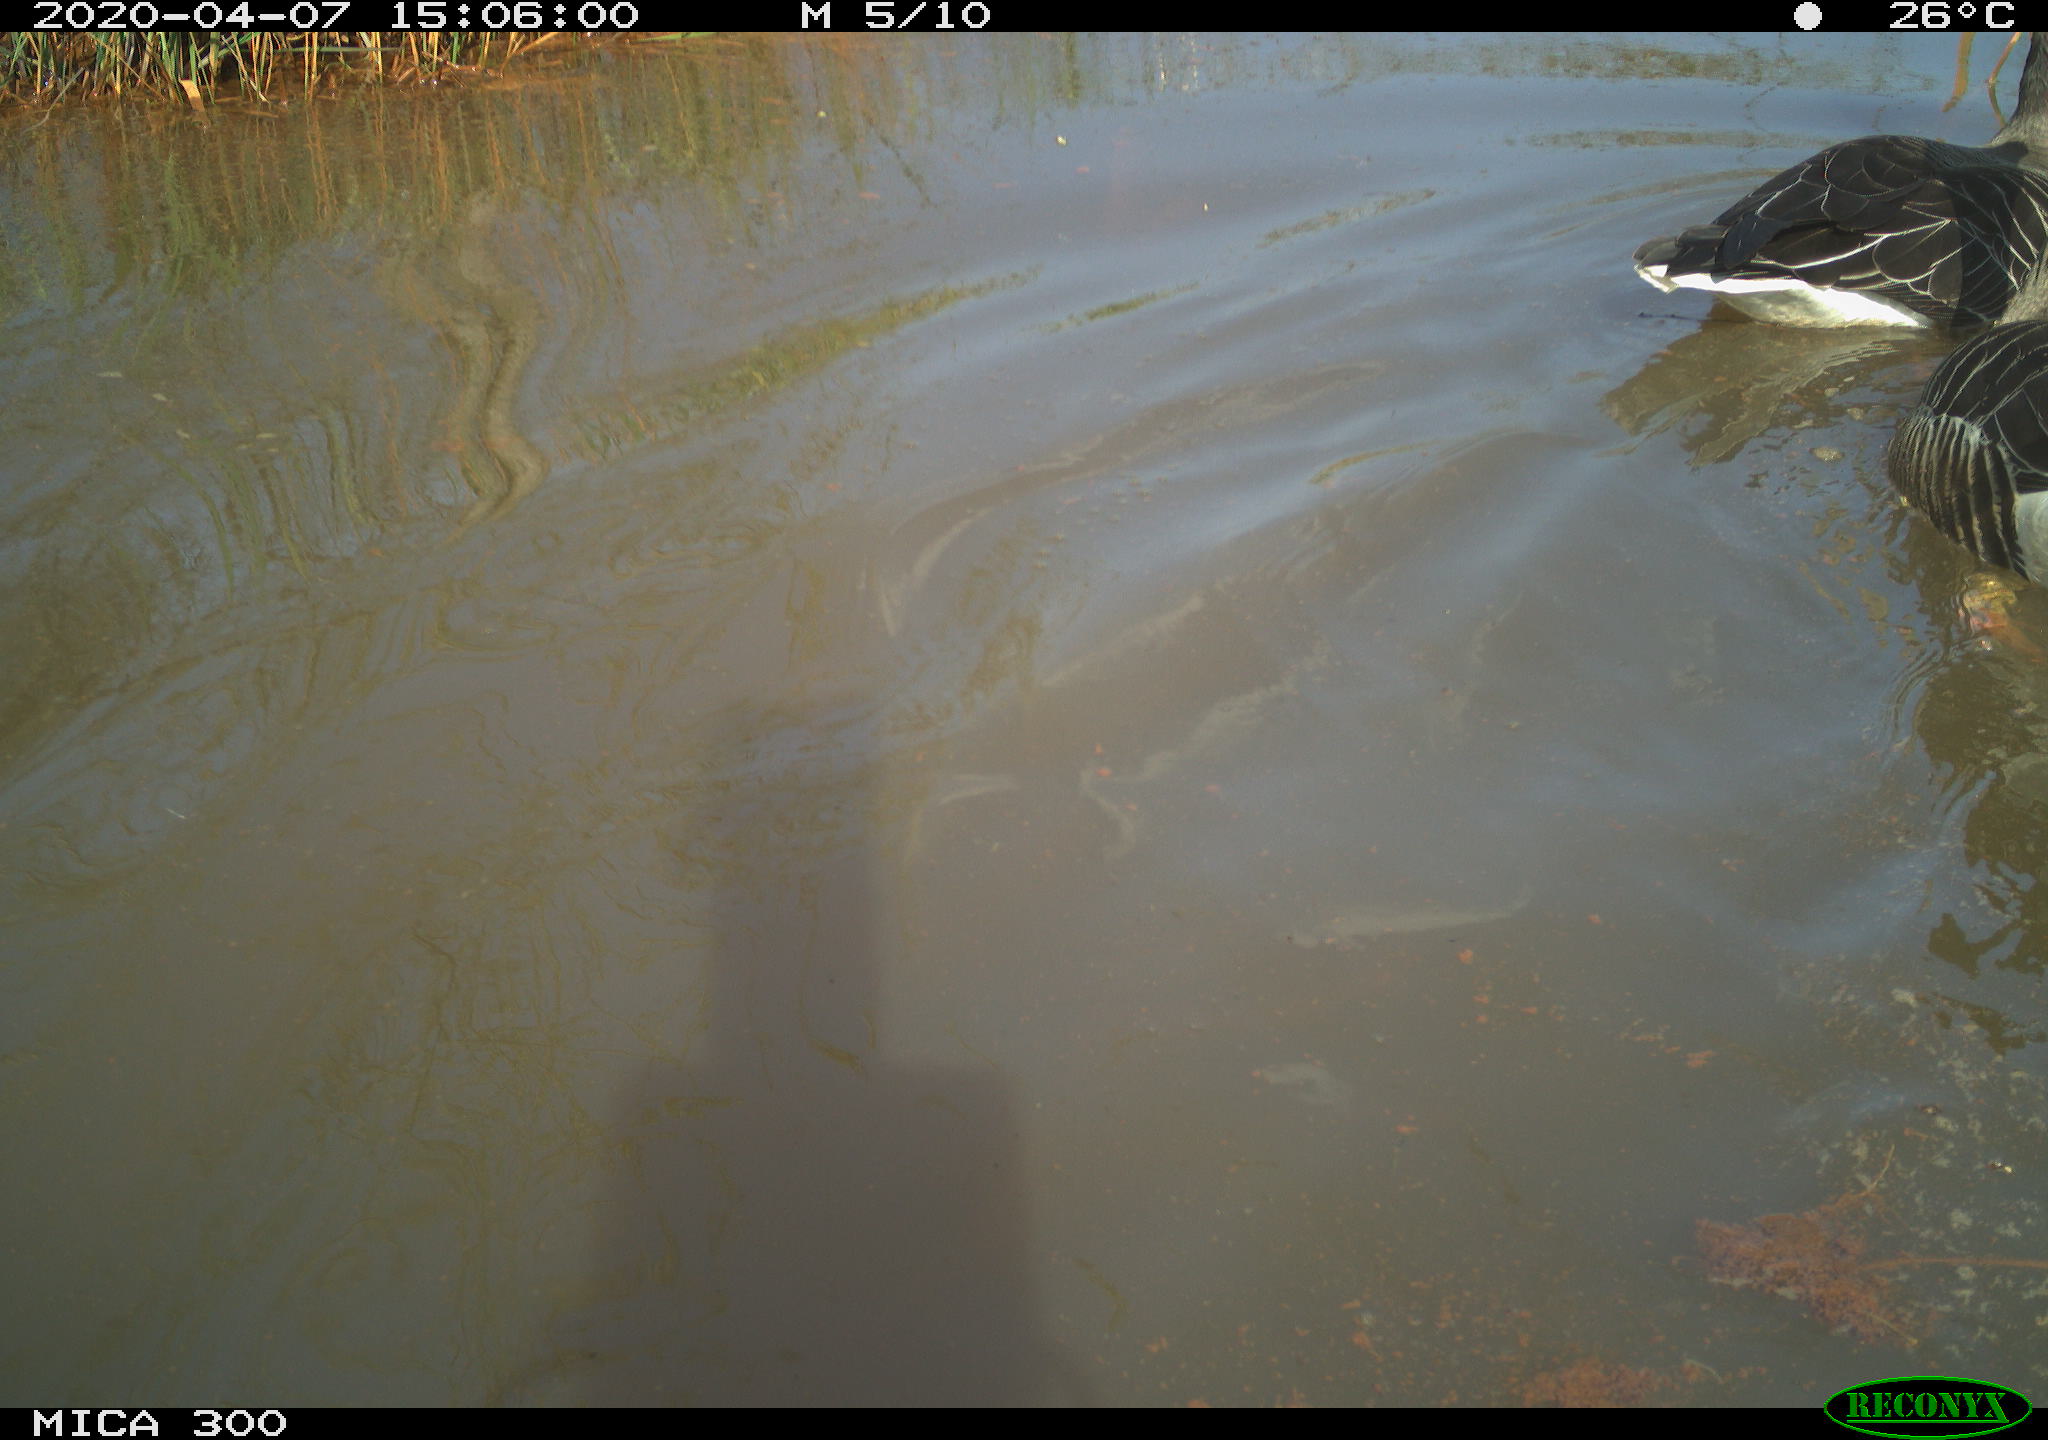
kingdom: Animalia
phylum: Chordata
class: Aves
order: Anseriformes
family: Anatidae
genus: Anser
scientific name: Anser anser
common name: Greylag goose
